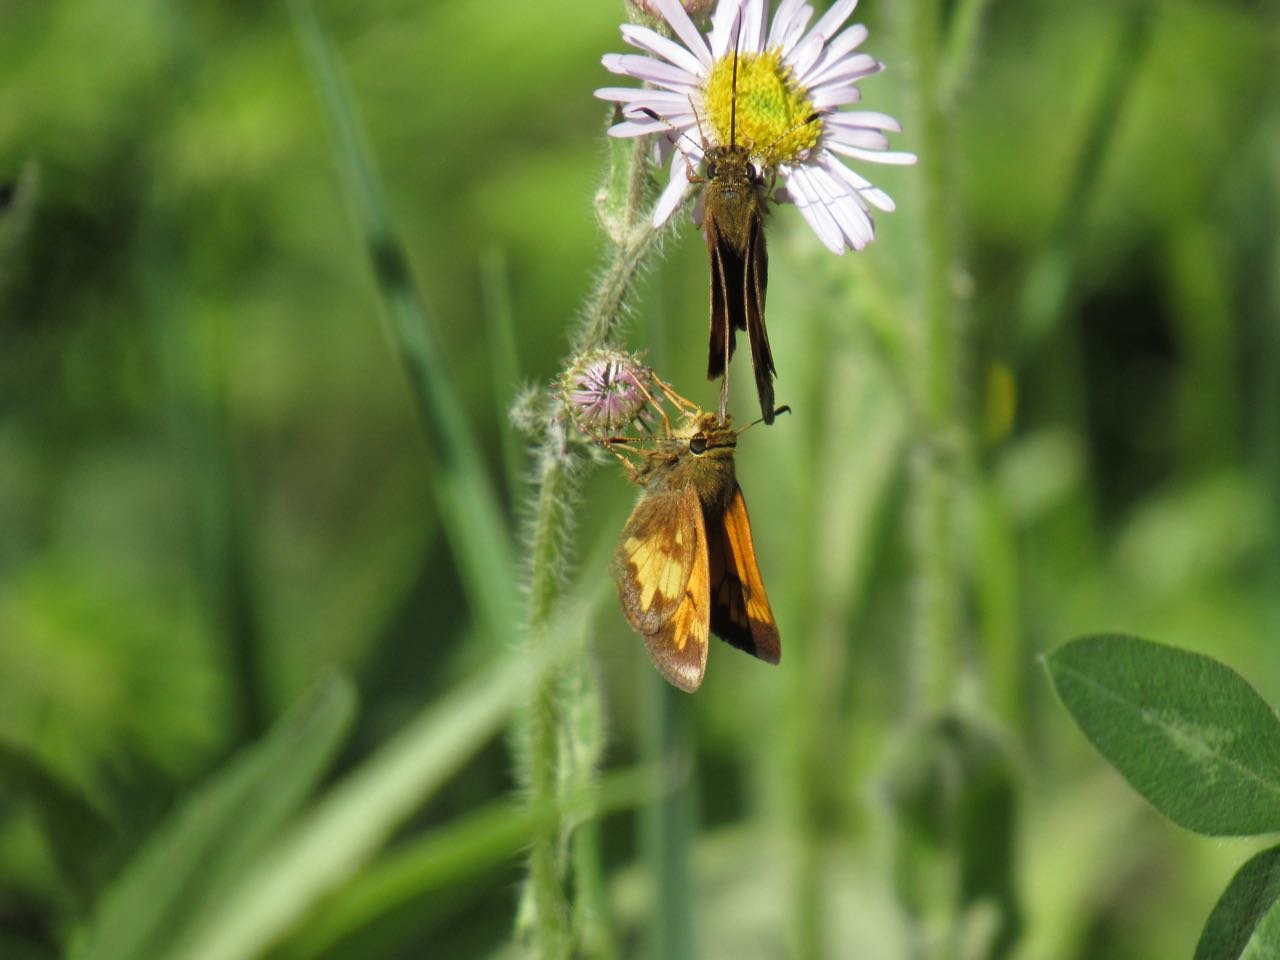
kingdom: Animalia
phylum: Arthropoda
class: Insecta
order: Lepidoptera
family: Hesperiidae
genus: Lon
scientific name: Lon hobomok
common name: Hobomok Skipper
